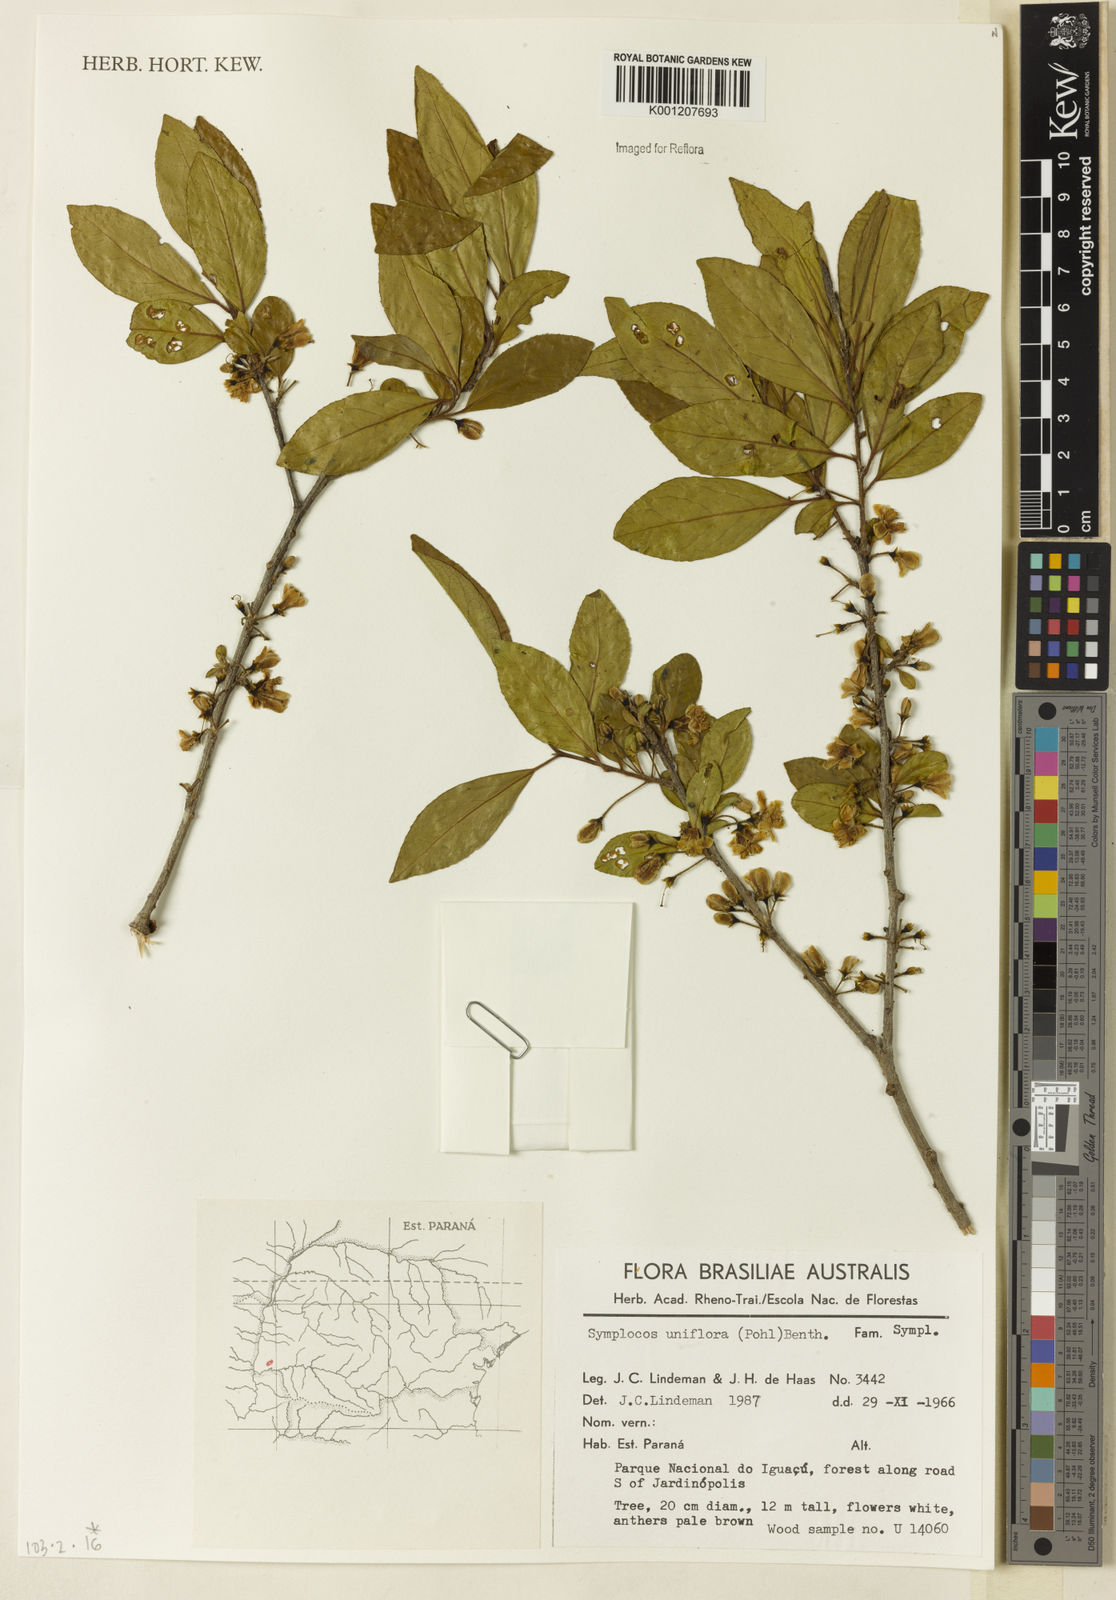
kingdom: Plantae
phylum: Tracheophyta
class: Magnoliopsida
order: Ericales
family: Symplocaceae
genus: Symplocos
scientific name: Symplocos uniflora
